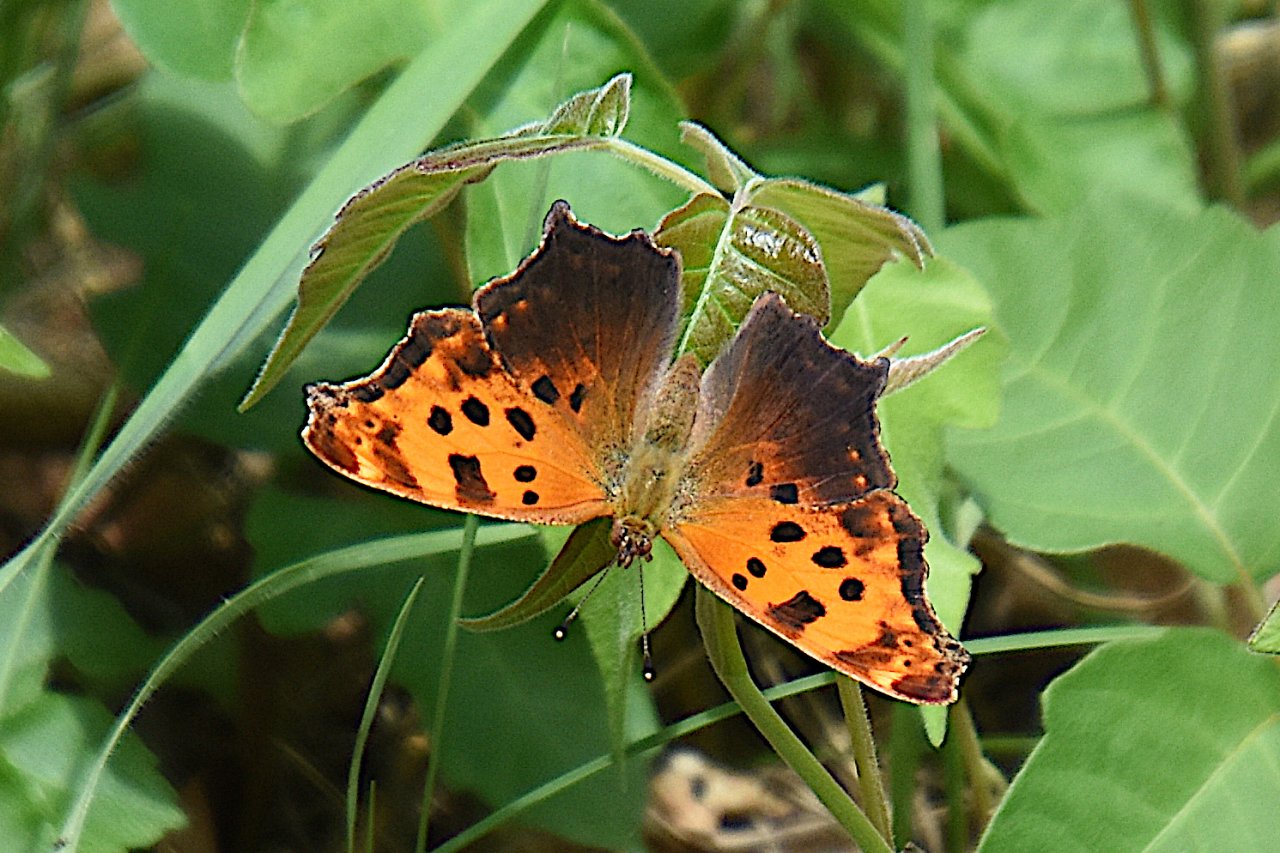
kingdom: Animalia
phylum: Arthropoda
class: Insecta
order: Lepidoptera
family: Nymphalidae
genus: Polygonia
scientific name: Polygonia comma
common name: Eastern Comma
